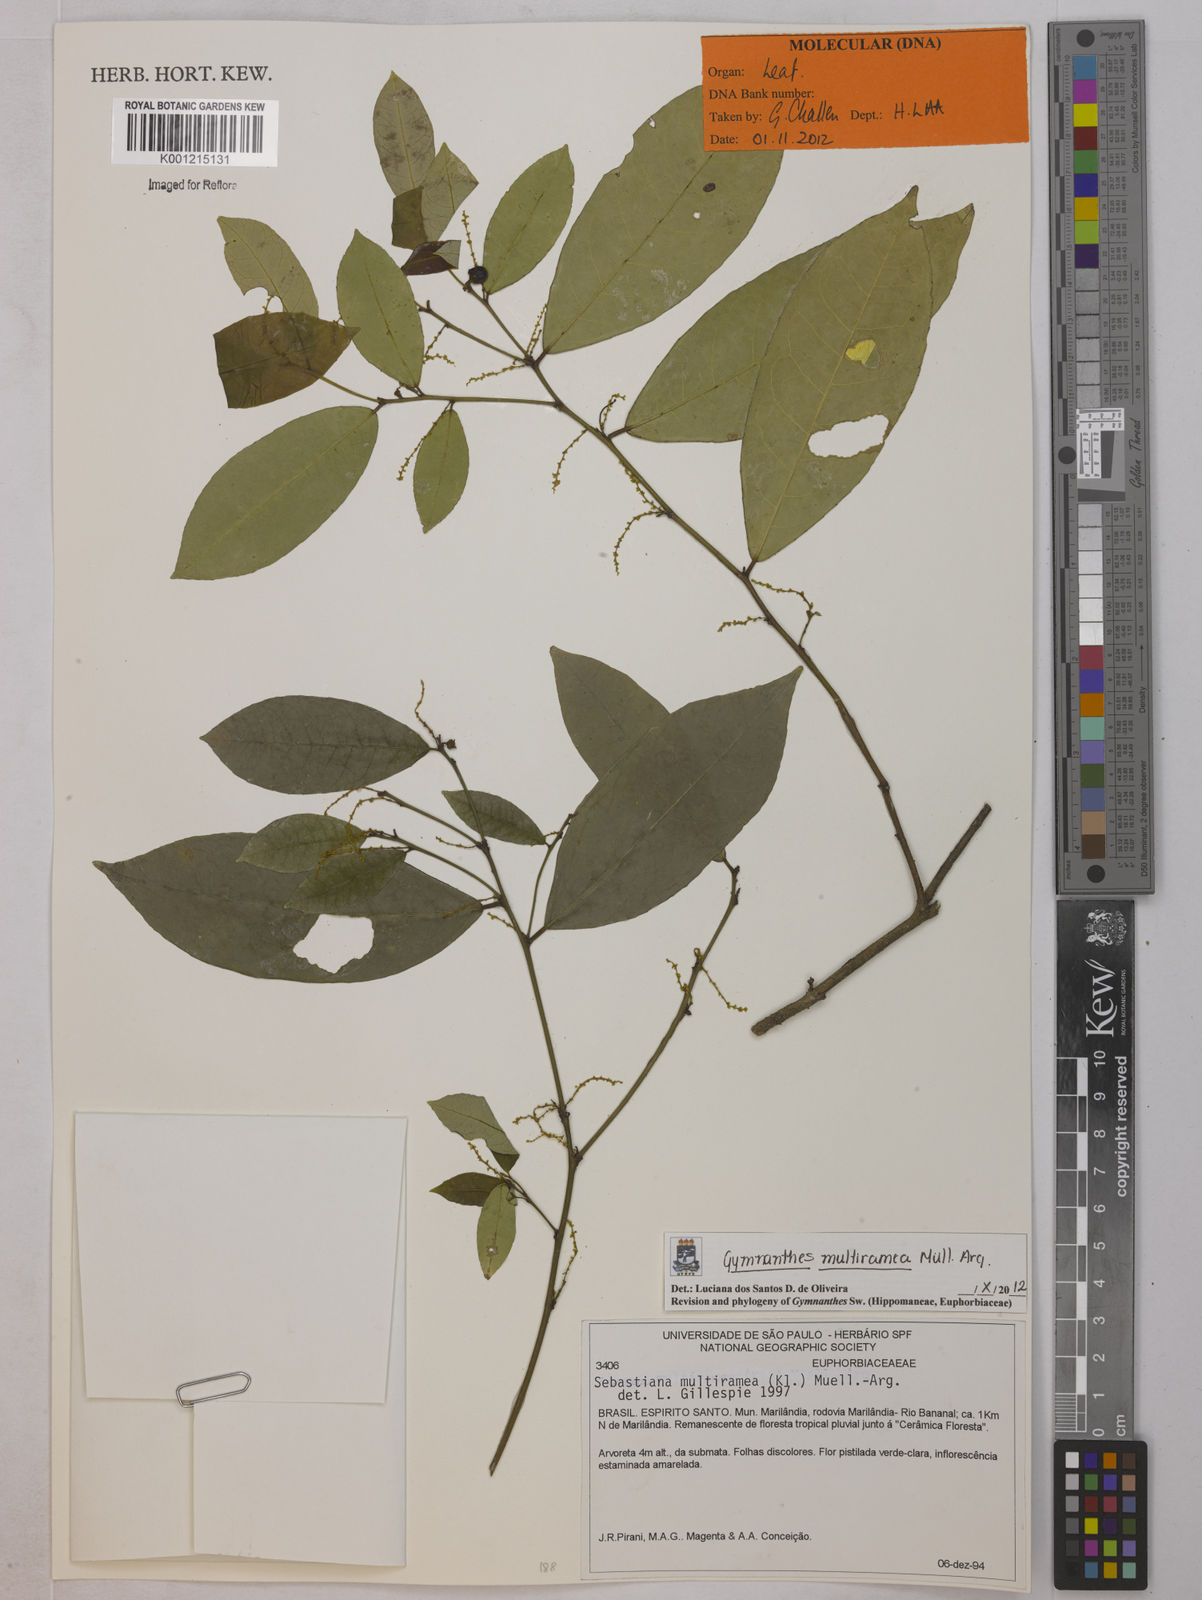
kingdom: Plantae
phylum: Tracheophyta
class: Magnoliopsida
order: Malpighiales
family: Euphorbiaceae
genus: Gymnanthes
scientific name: Gymnanthes
